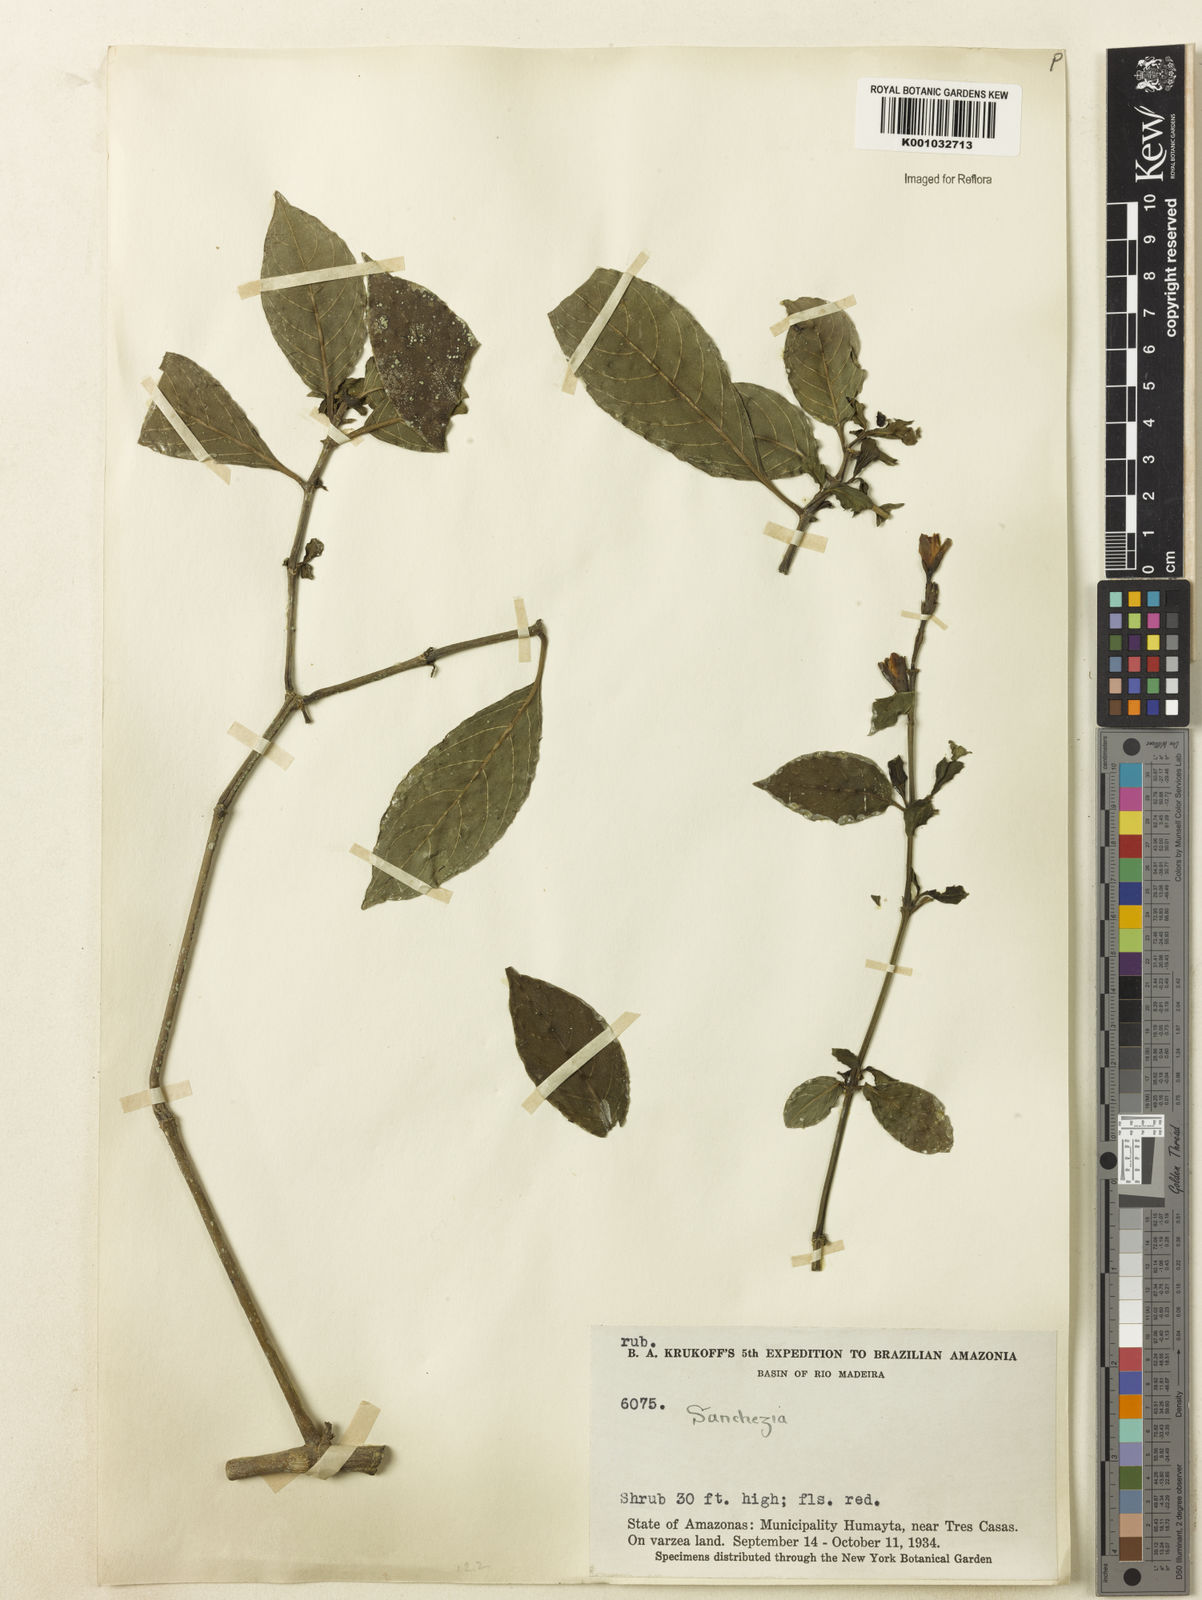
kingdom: Plantae
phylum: Tracheophyta
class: Magnoliopsida
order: Lamiales
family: Acanthaceae
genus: Sanchezia
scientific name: Sanchezia
